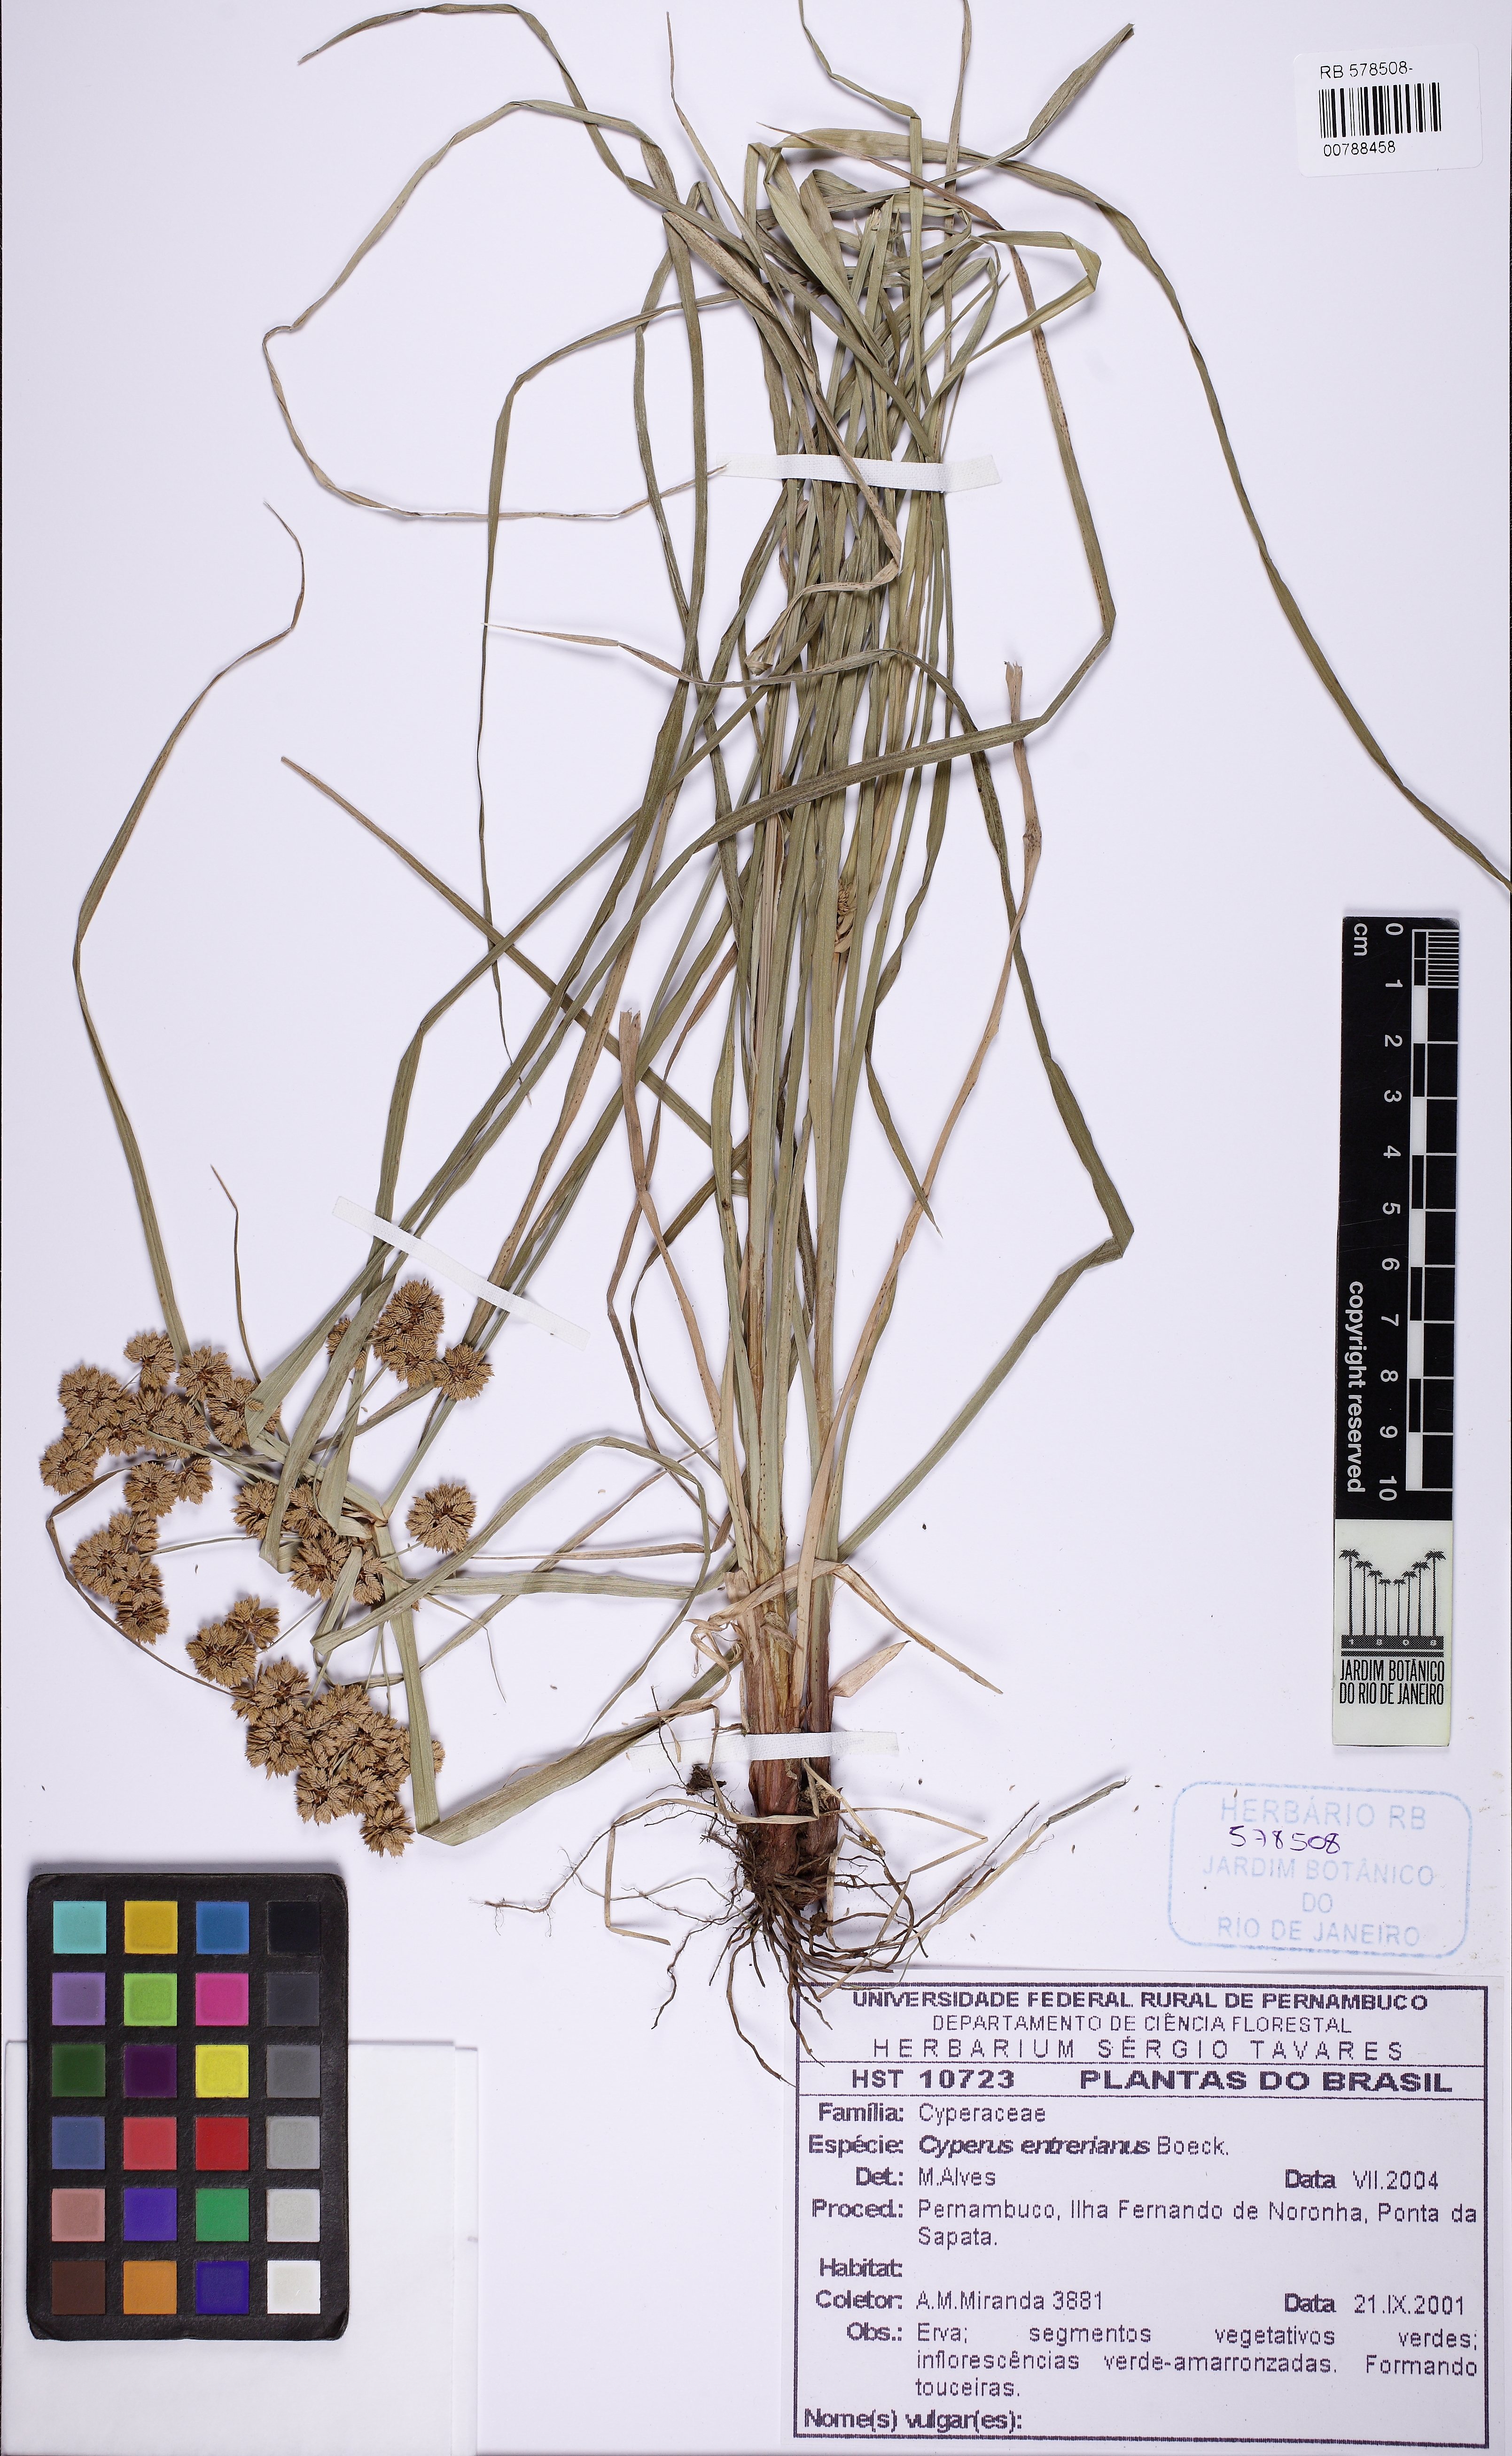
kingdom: Plantae
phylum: Tracheophyta
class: Liliopsida
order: Poales
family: Cyperaceae
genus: Cyperus
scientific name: Cyperus entrerianus
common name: Woodrush flatsedge
